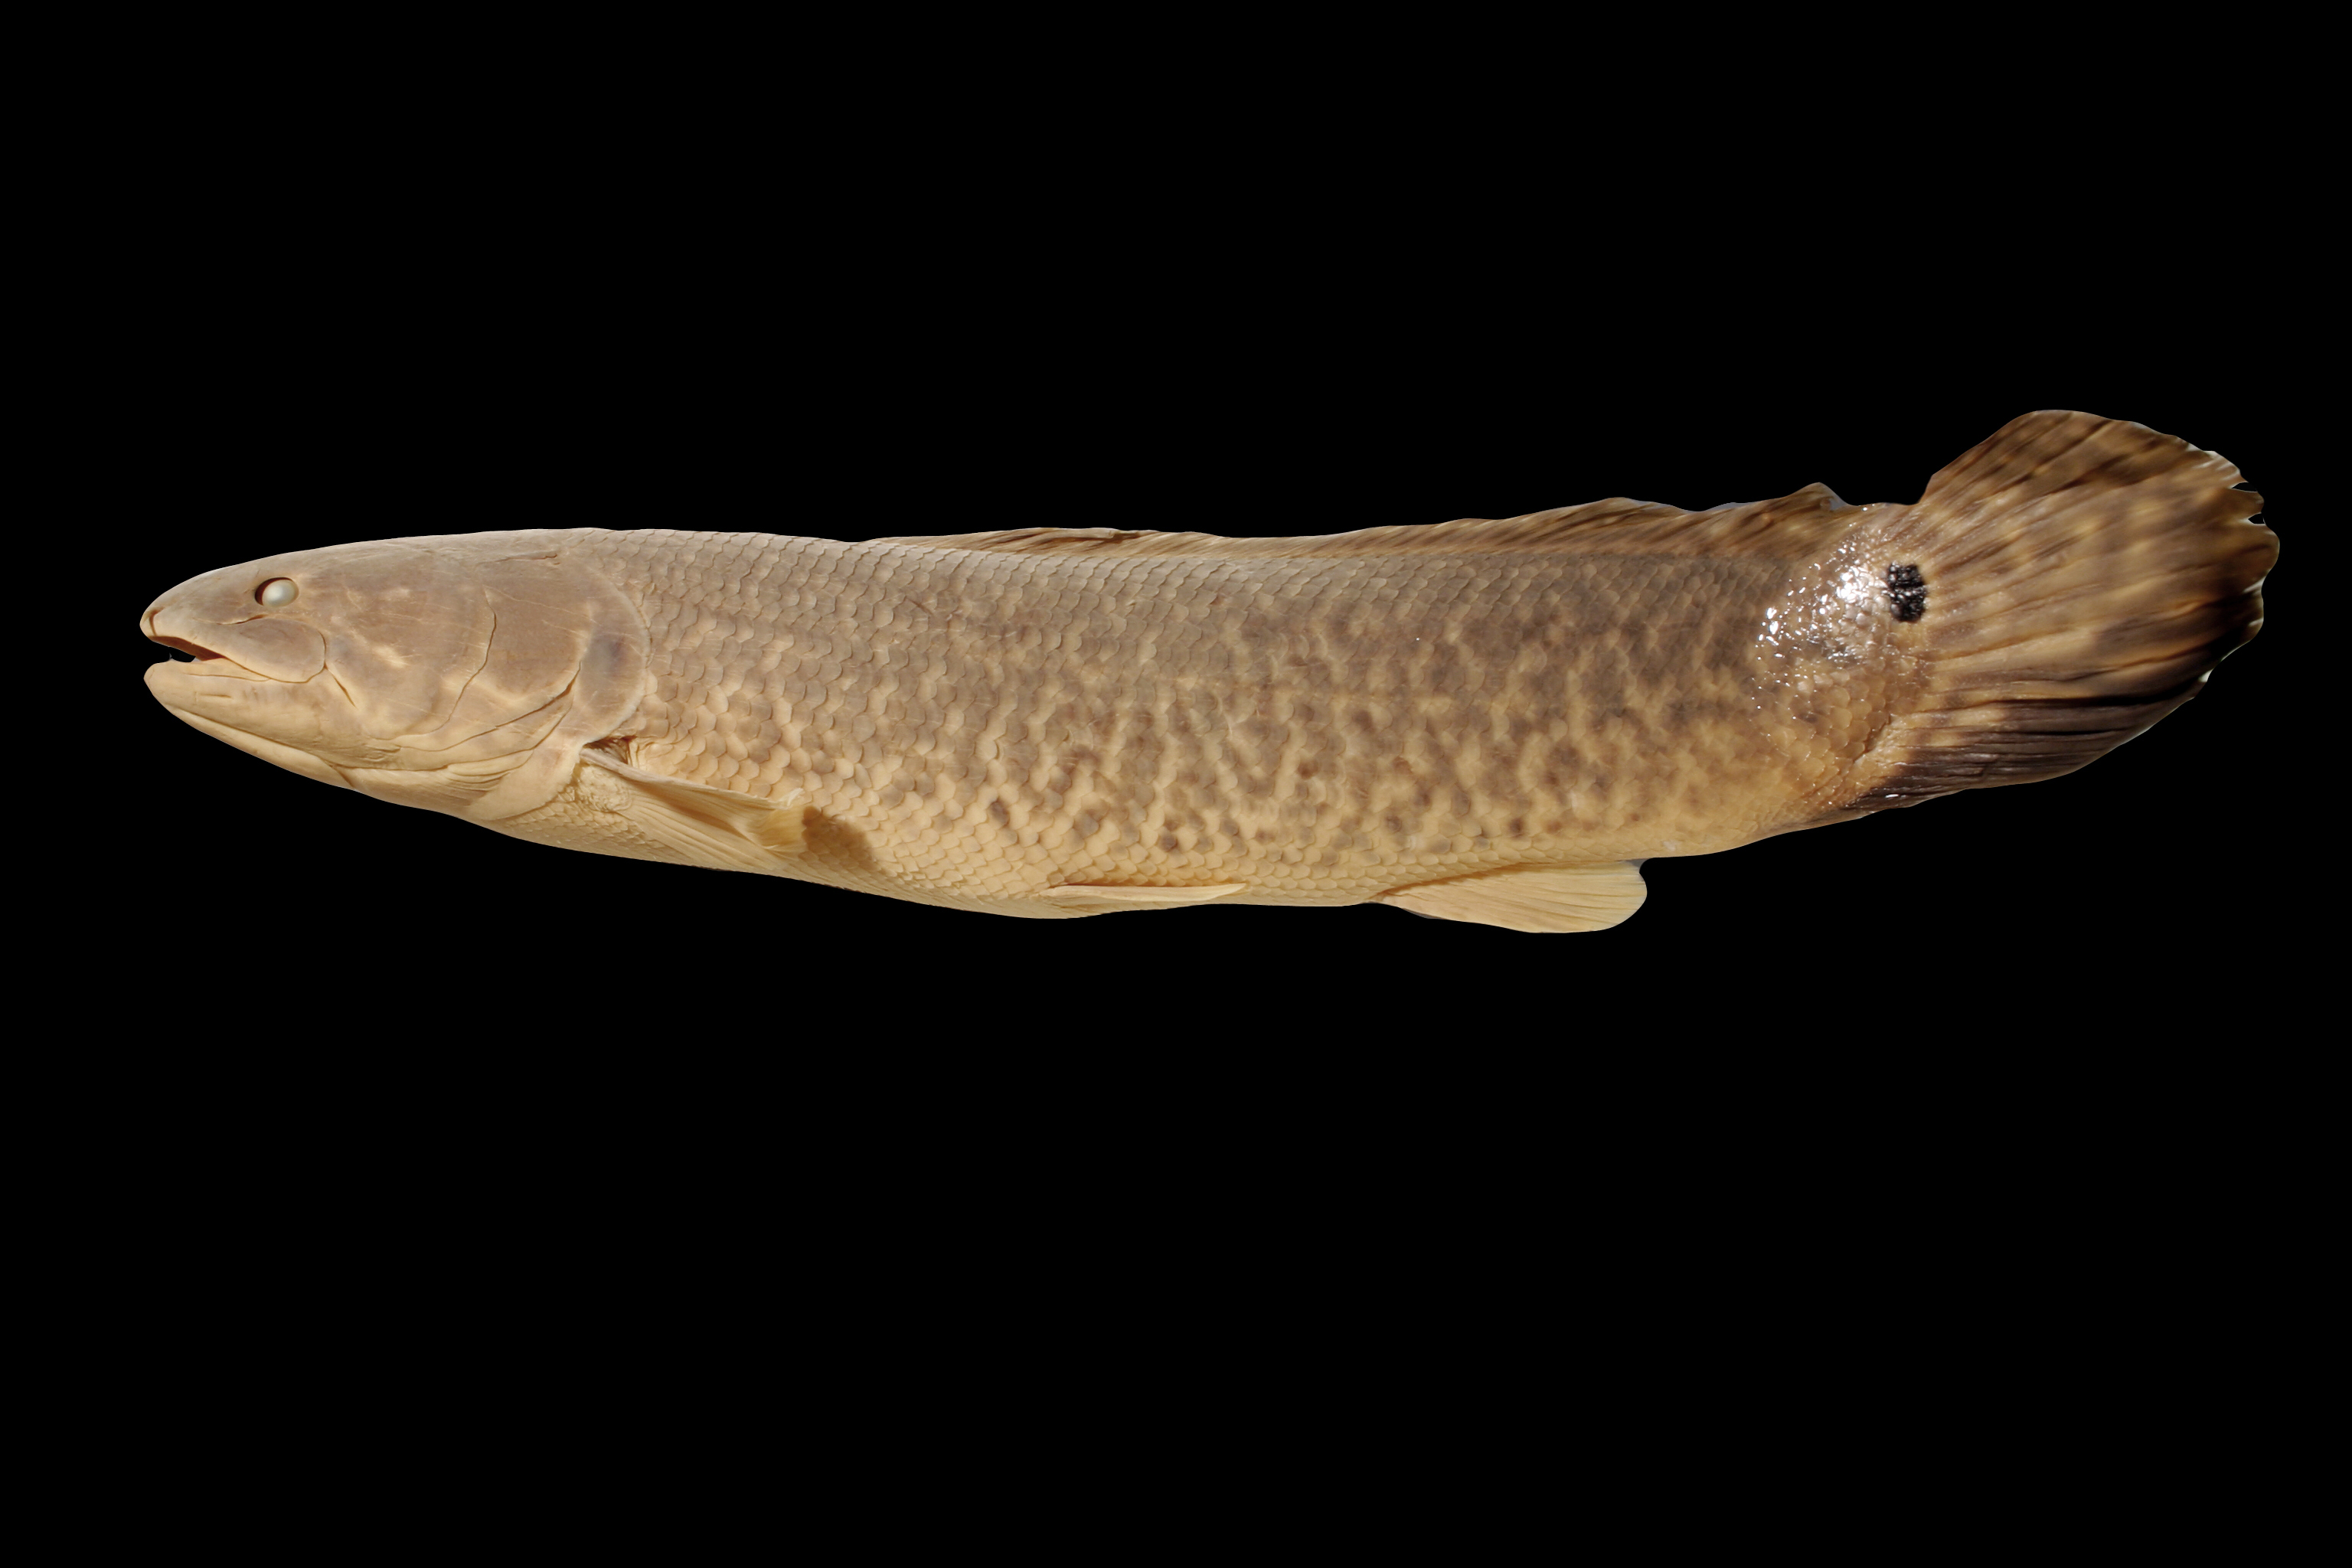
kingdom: Animalia
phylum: Chordata
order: Amiiformes
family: Amiidae
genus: Amia
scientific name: Amia calva
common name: Bowfin
